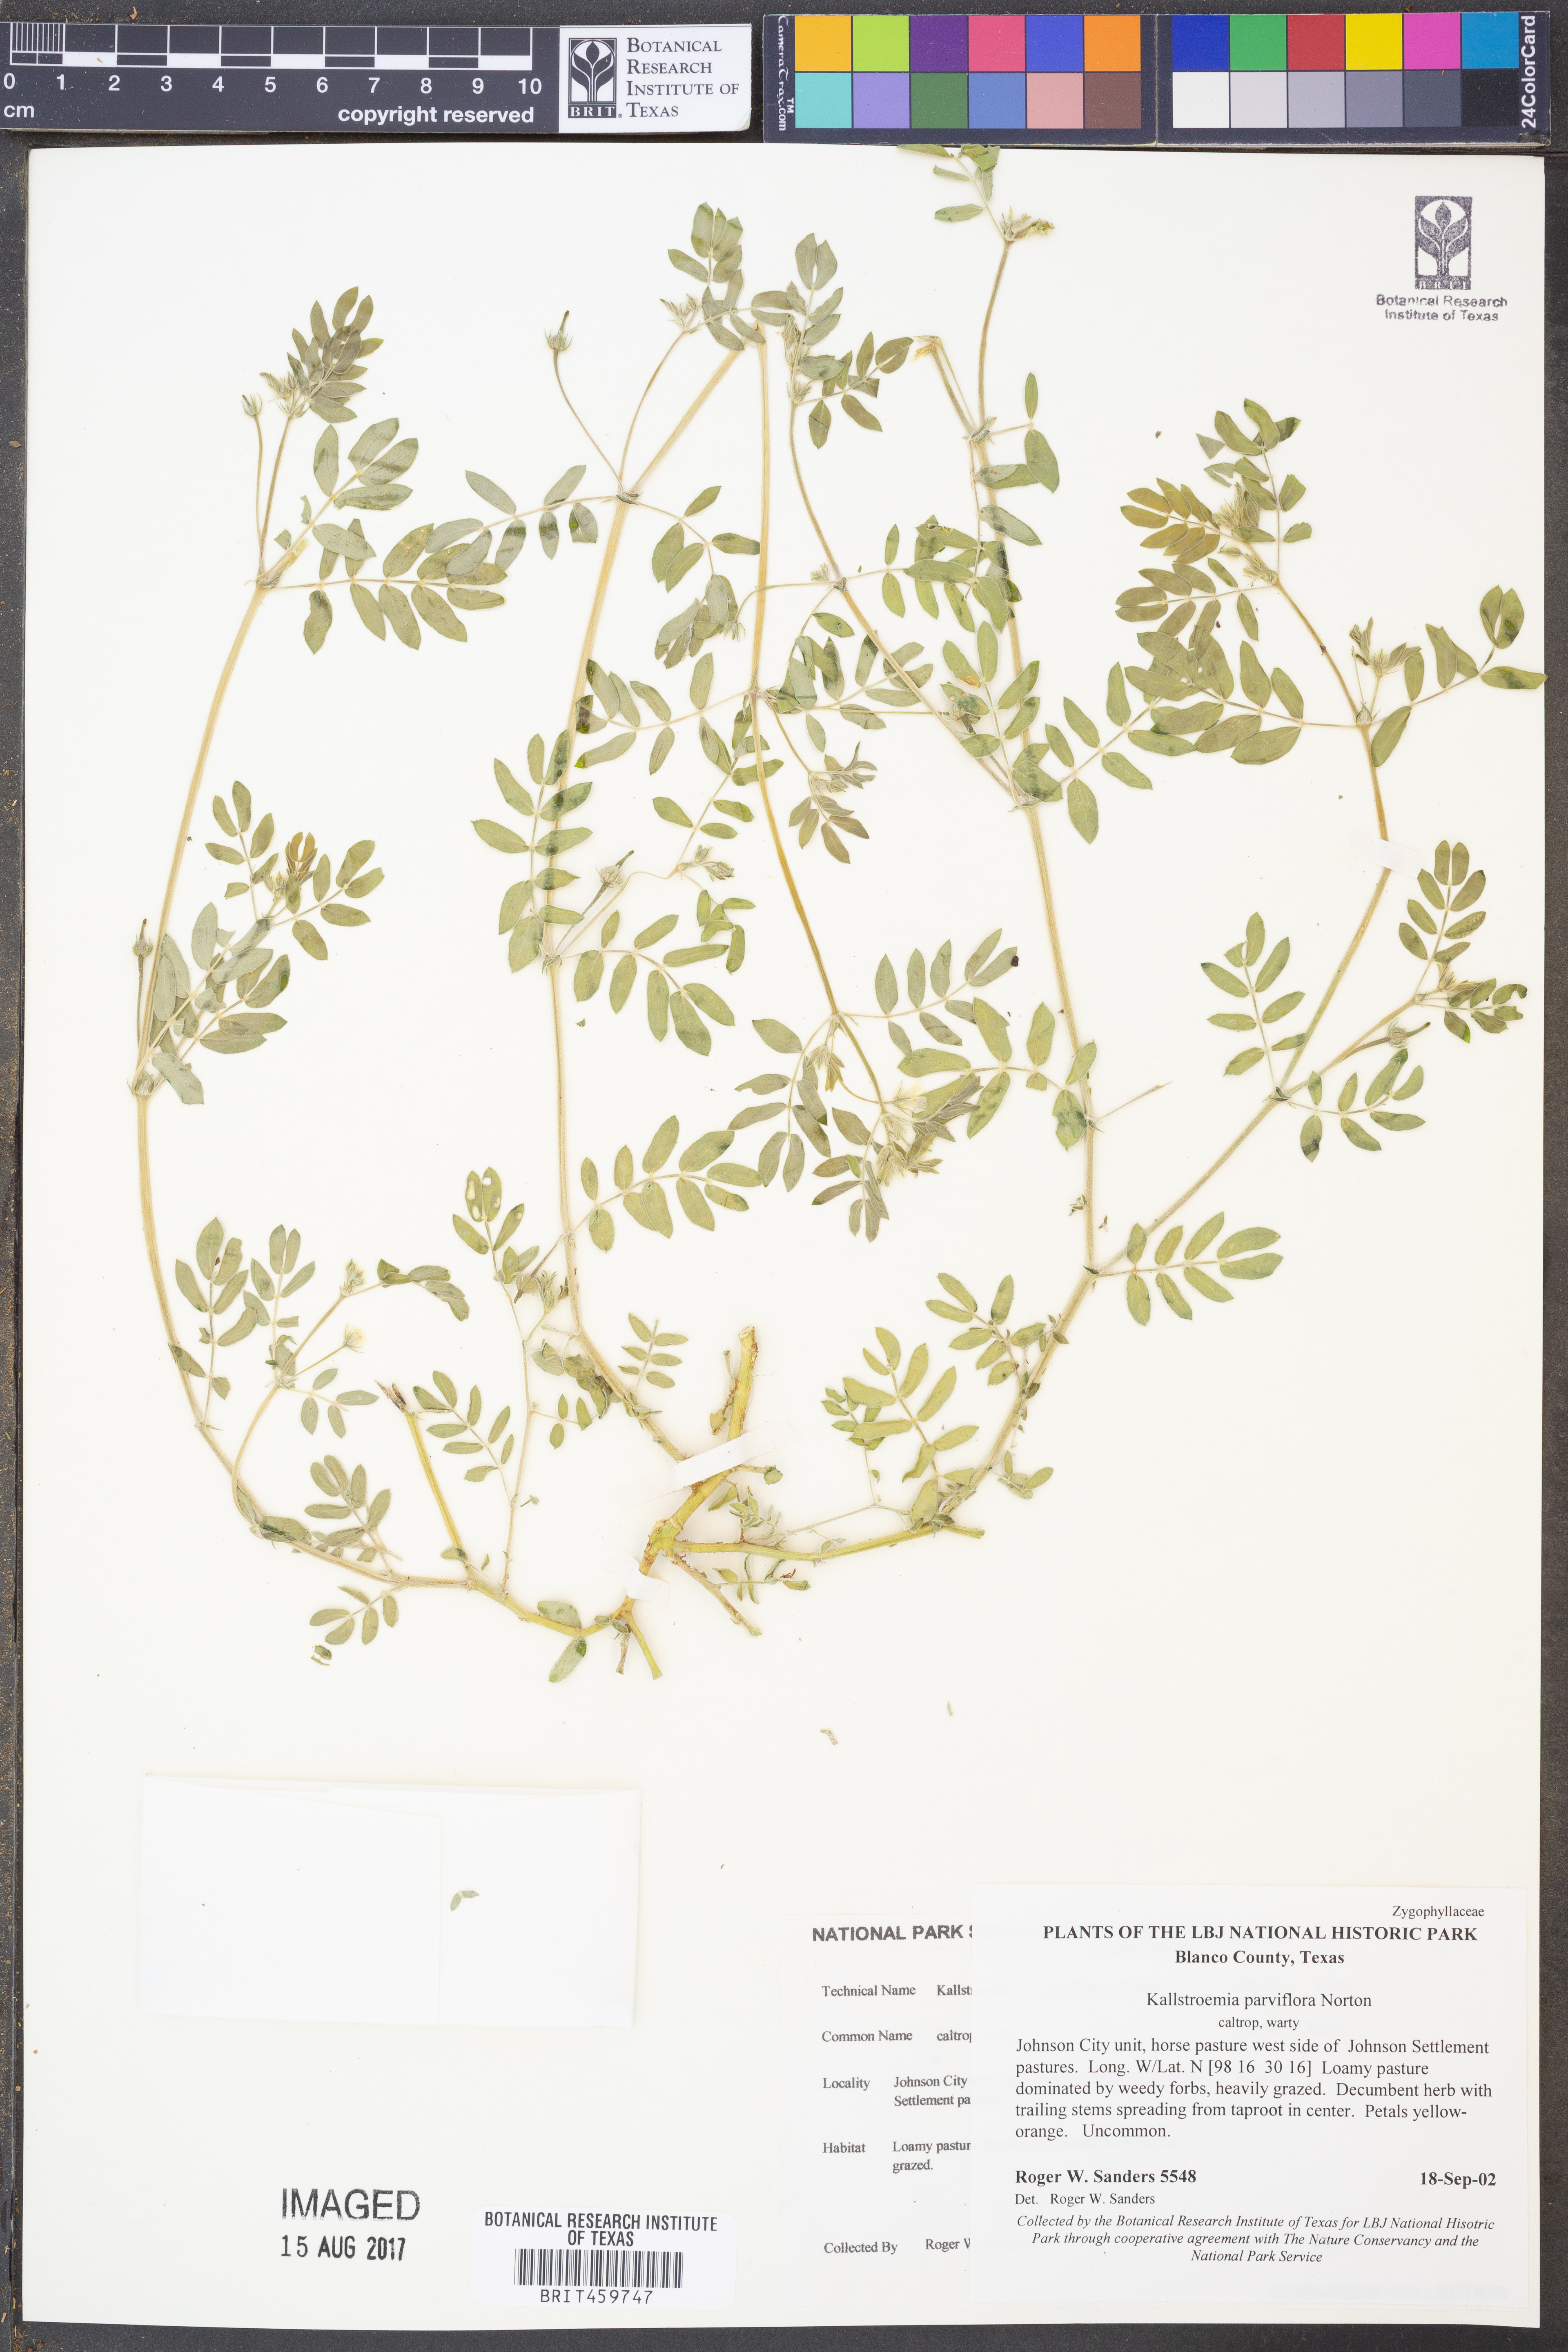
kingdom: Plantae
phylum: Tracheophyta
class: Magnoliopsida
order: Zygophyllales
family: Zygophyllaceae
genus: Kallstroemia
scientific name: Kallstroemia parviflora
